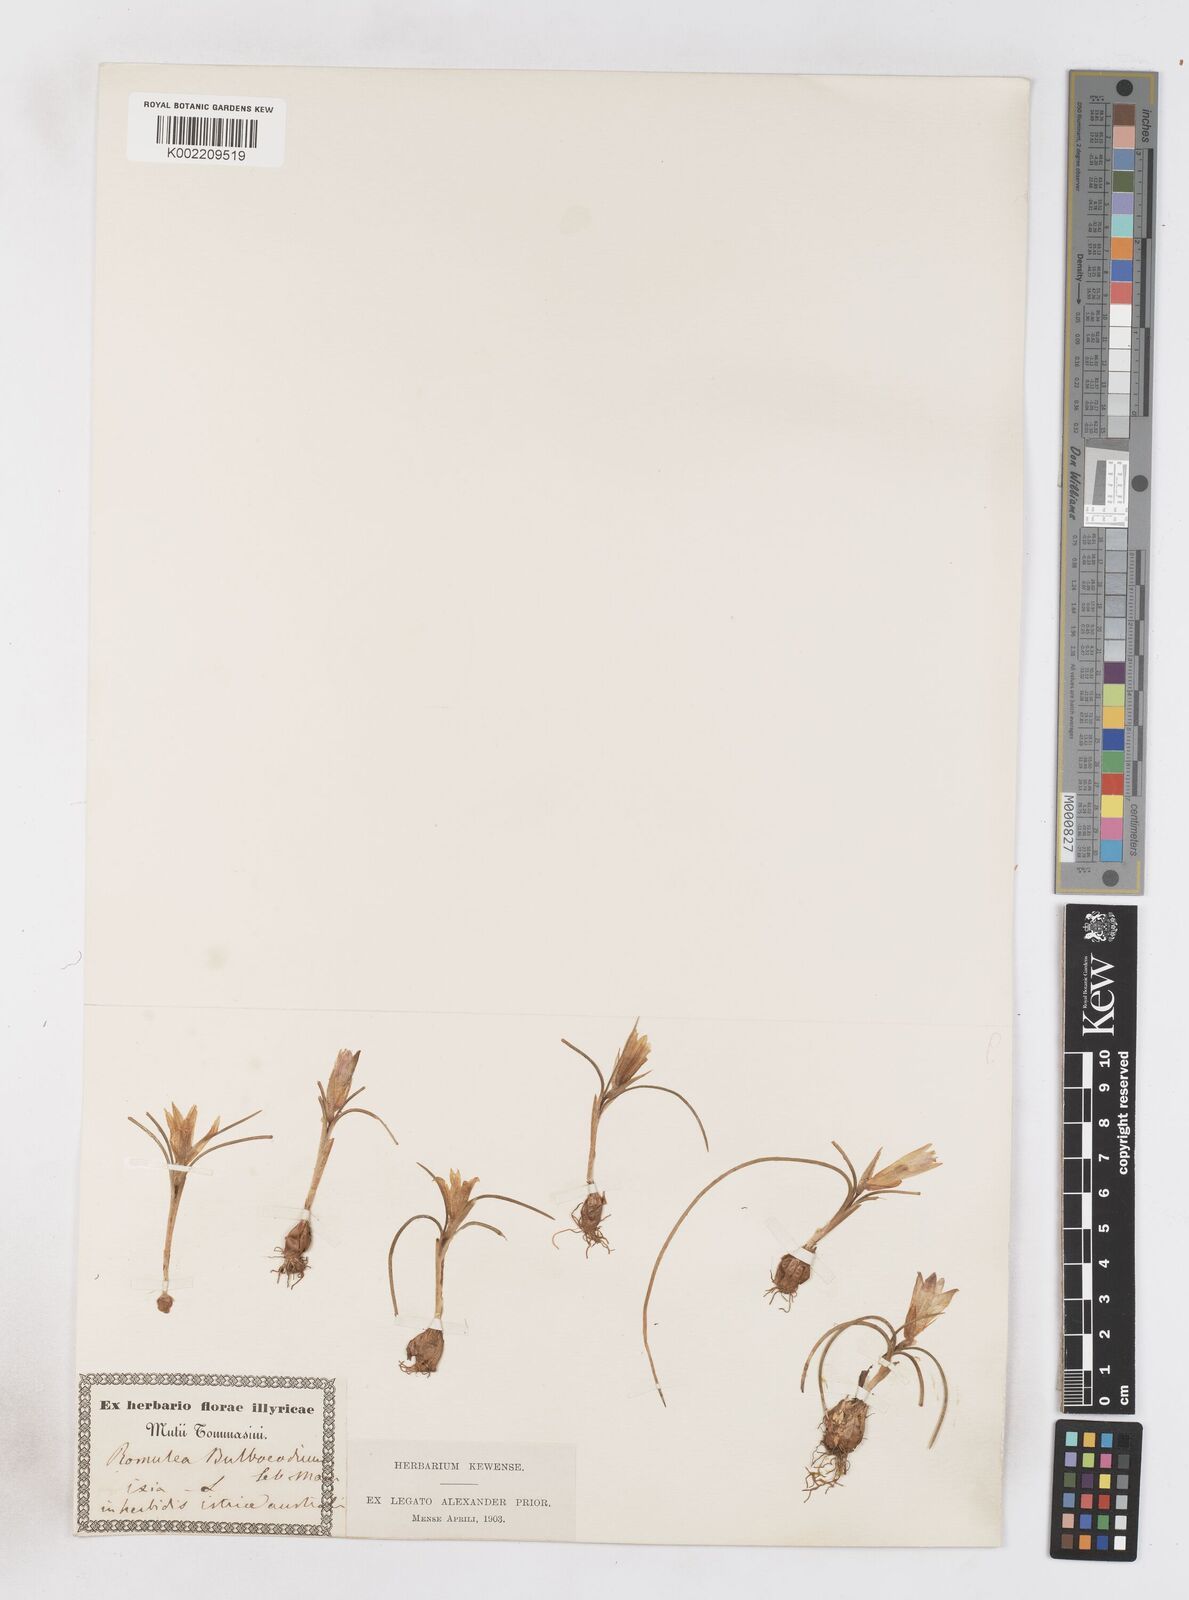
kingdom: Plantae
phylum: Tracheophyta
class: Liliopsida
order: Asparagales
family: Iridaceae
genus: Romulea
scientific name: Romulea bulbocodium
